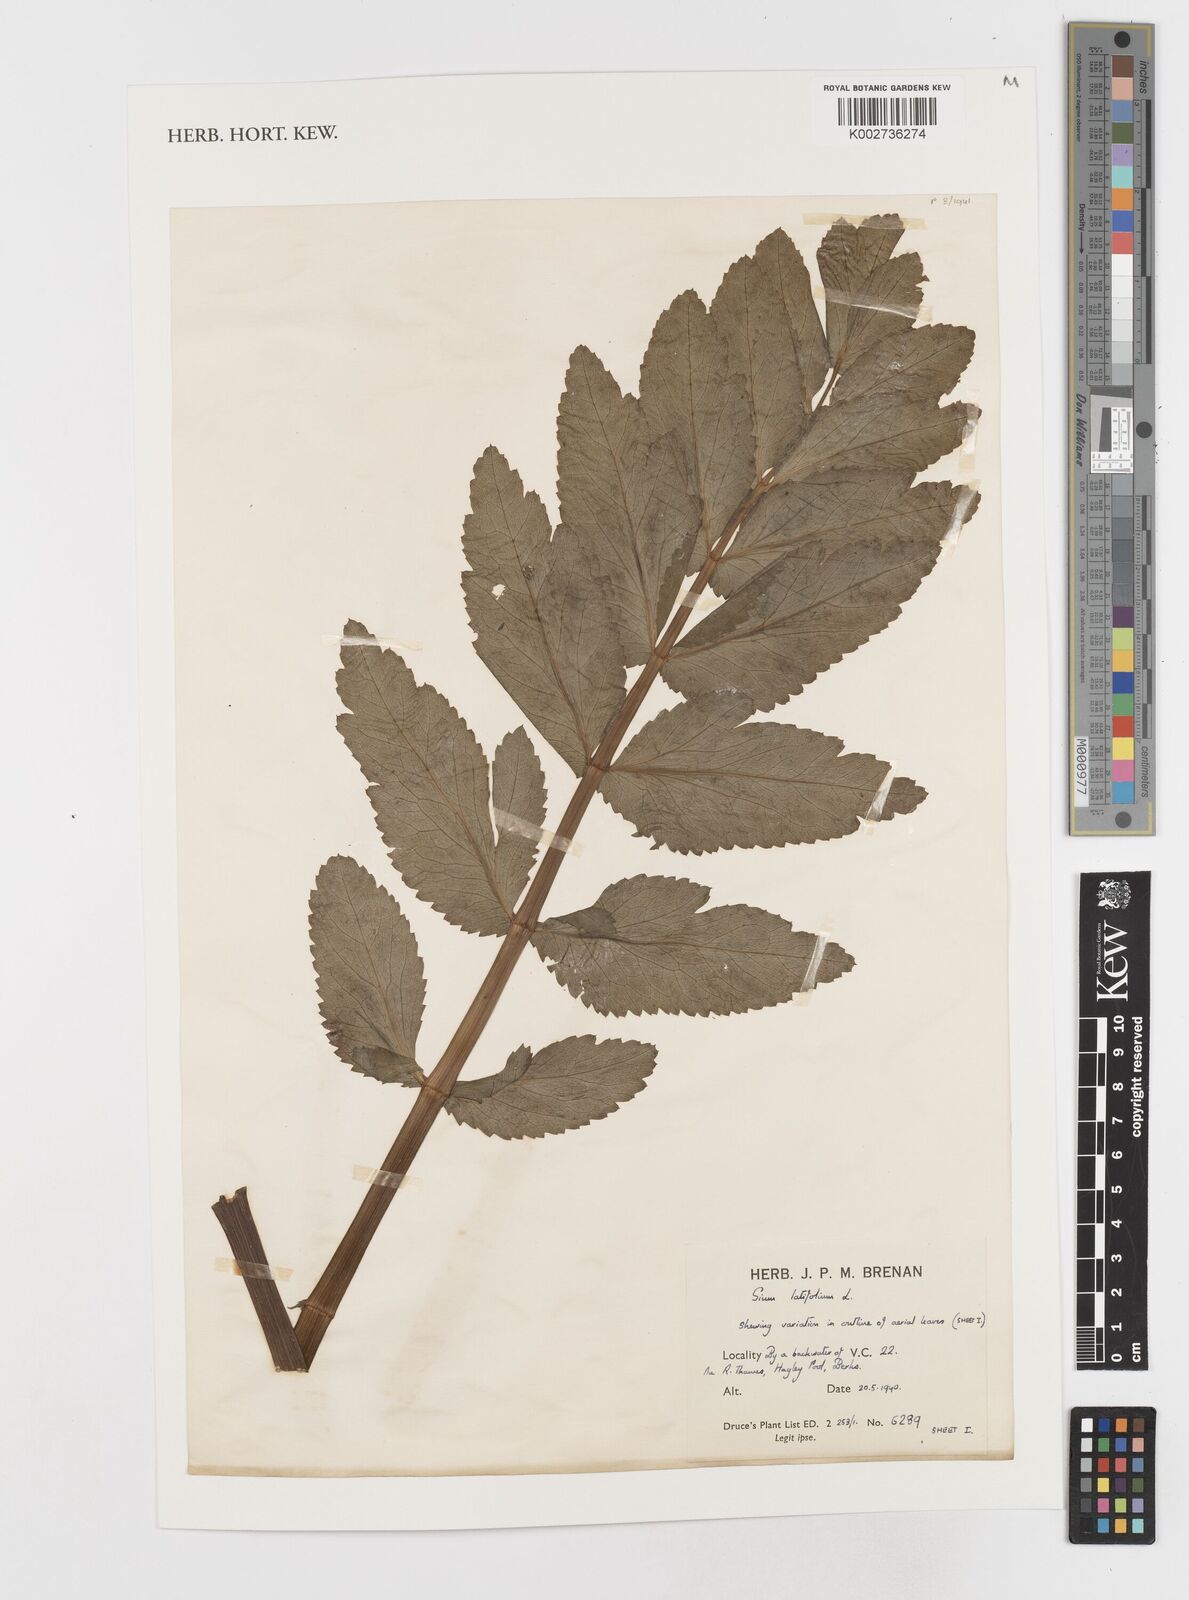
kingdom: Plantae
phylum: Tracheophyta
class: Magnoliopsida
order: Apiales
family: Apiaceae
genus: Sium
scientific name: Sium latifolium
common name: Greater water-parsnip
